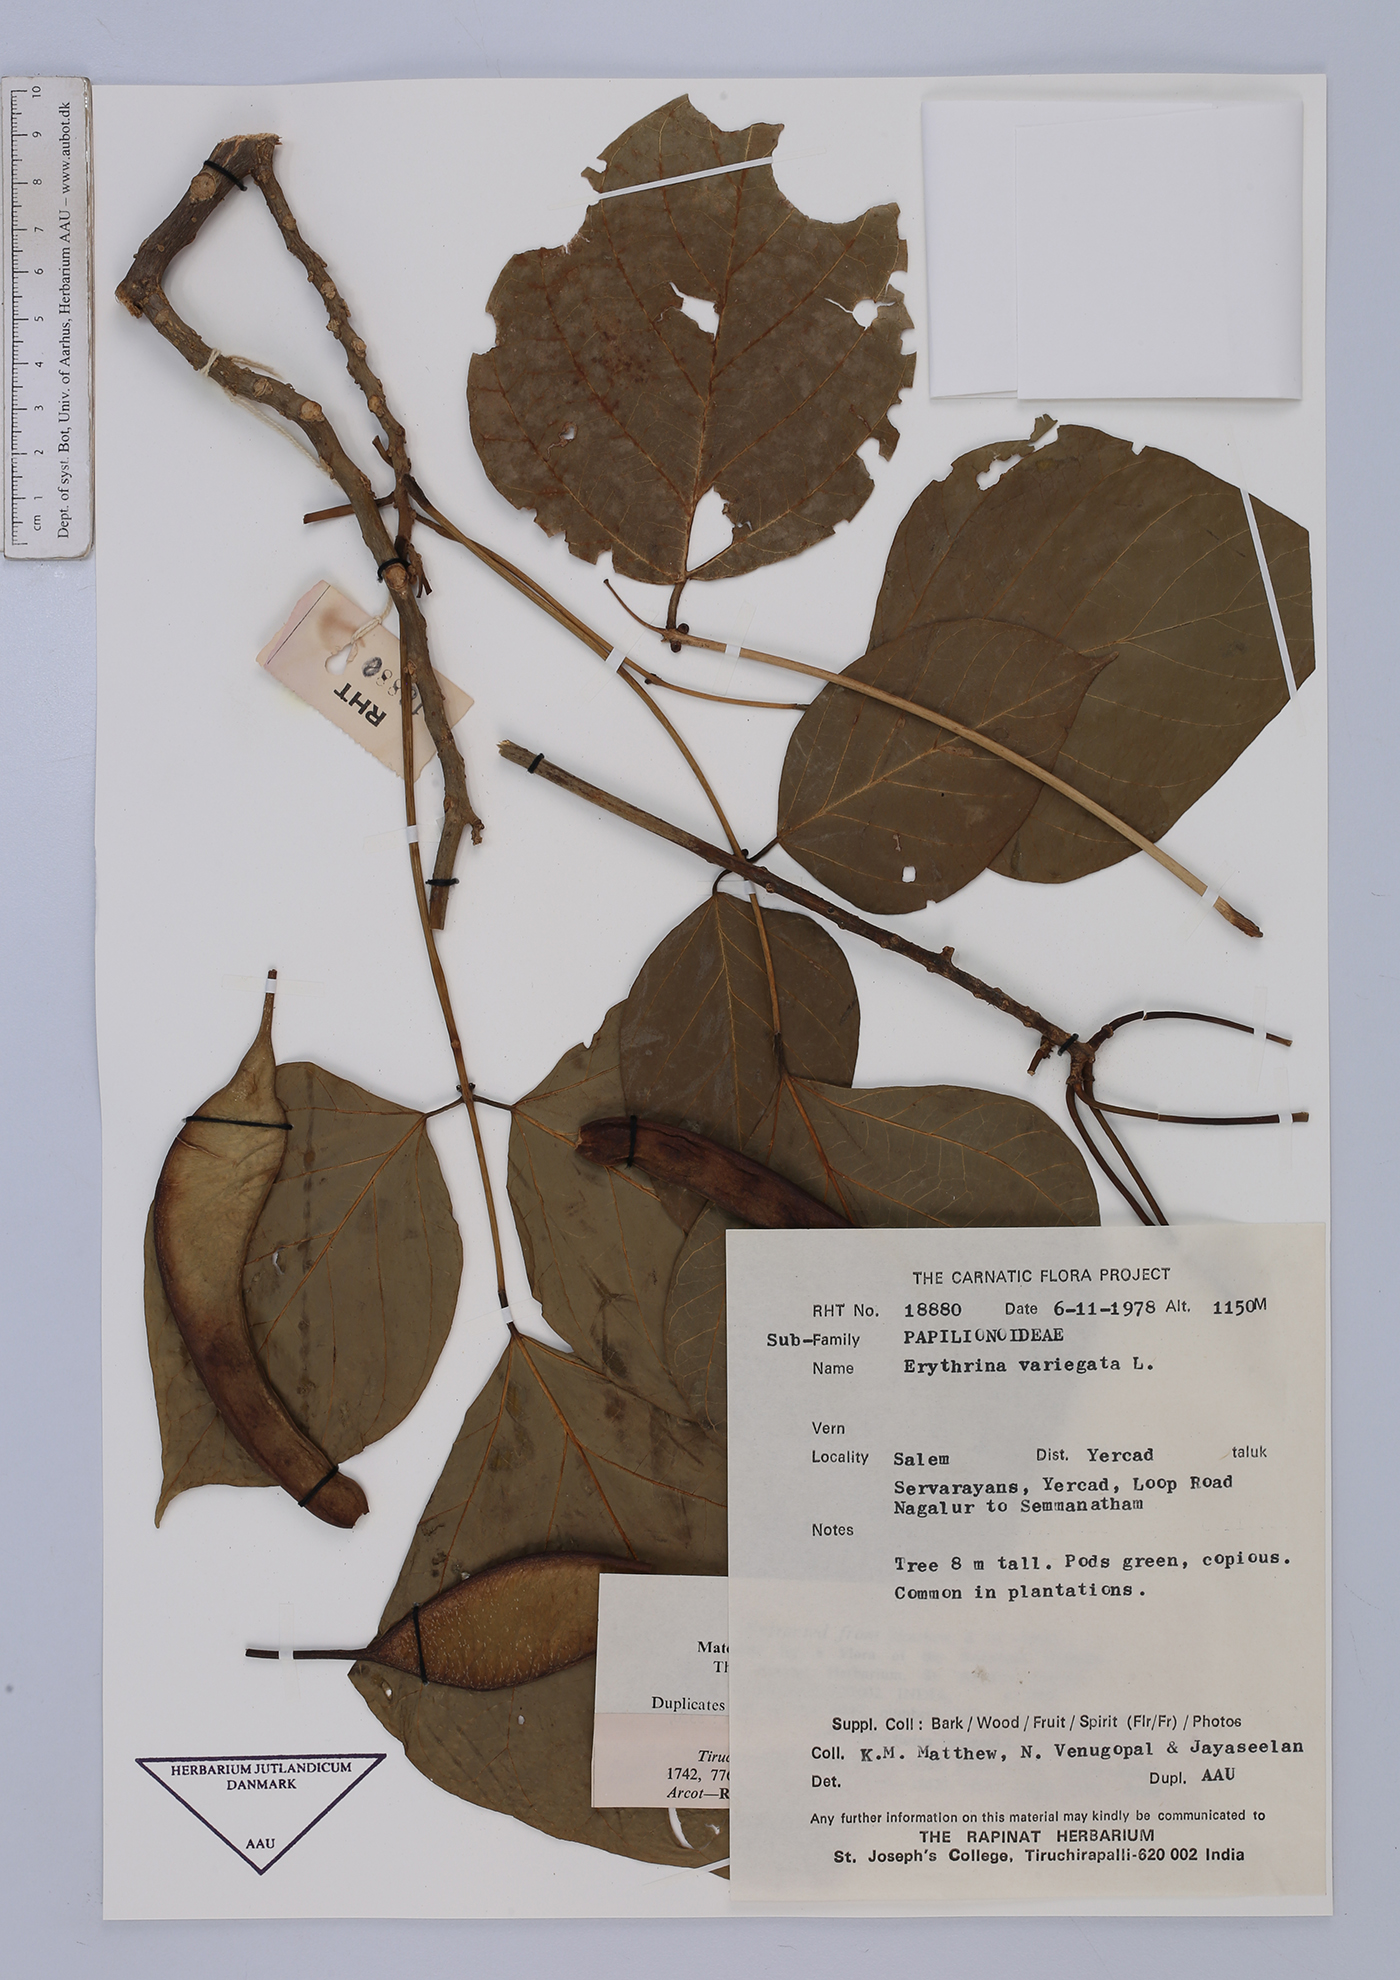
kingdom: Plantae
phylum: Tracheophyta
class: Magnoliopsida
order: Fabales
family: Fabaceae
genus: Erythrina
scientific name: Erythrina variegata
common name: Indian coral tree
